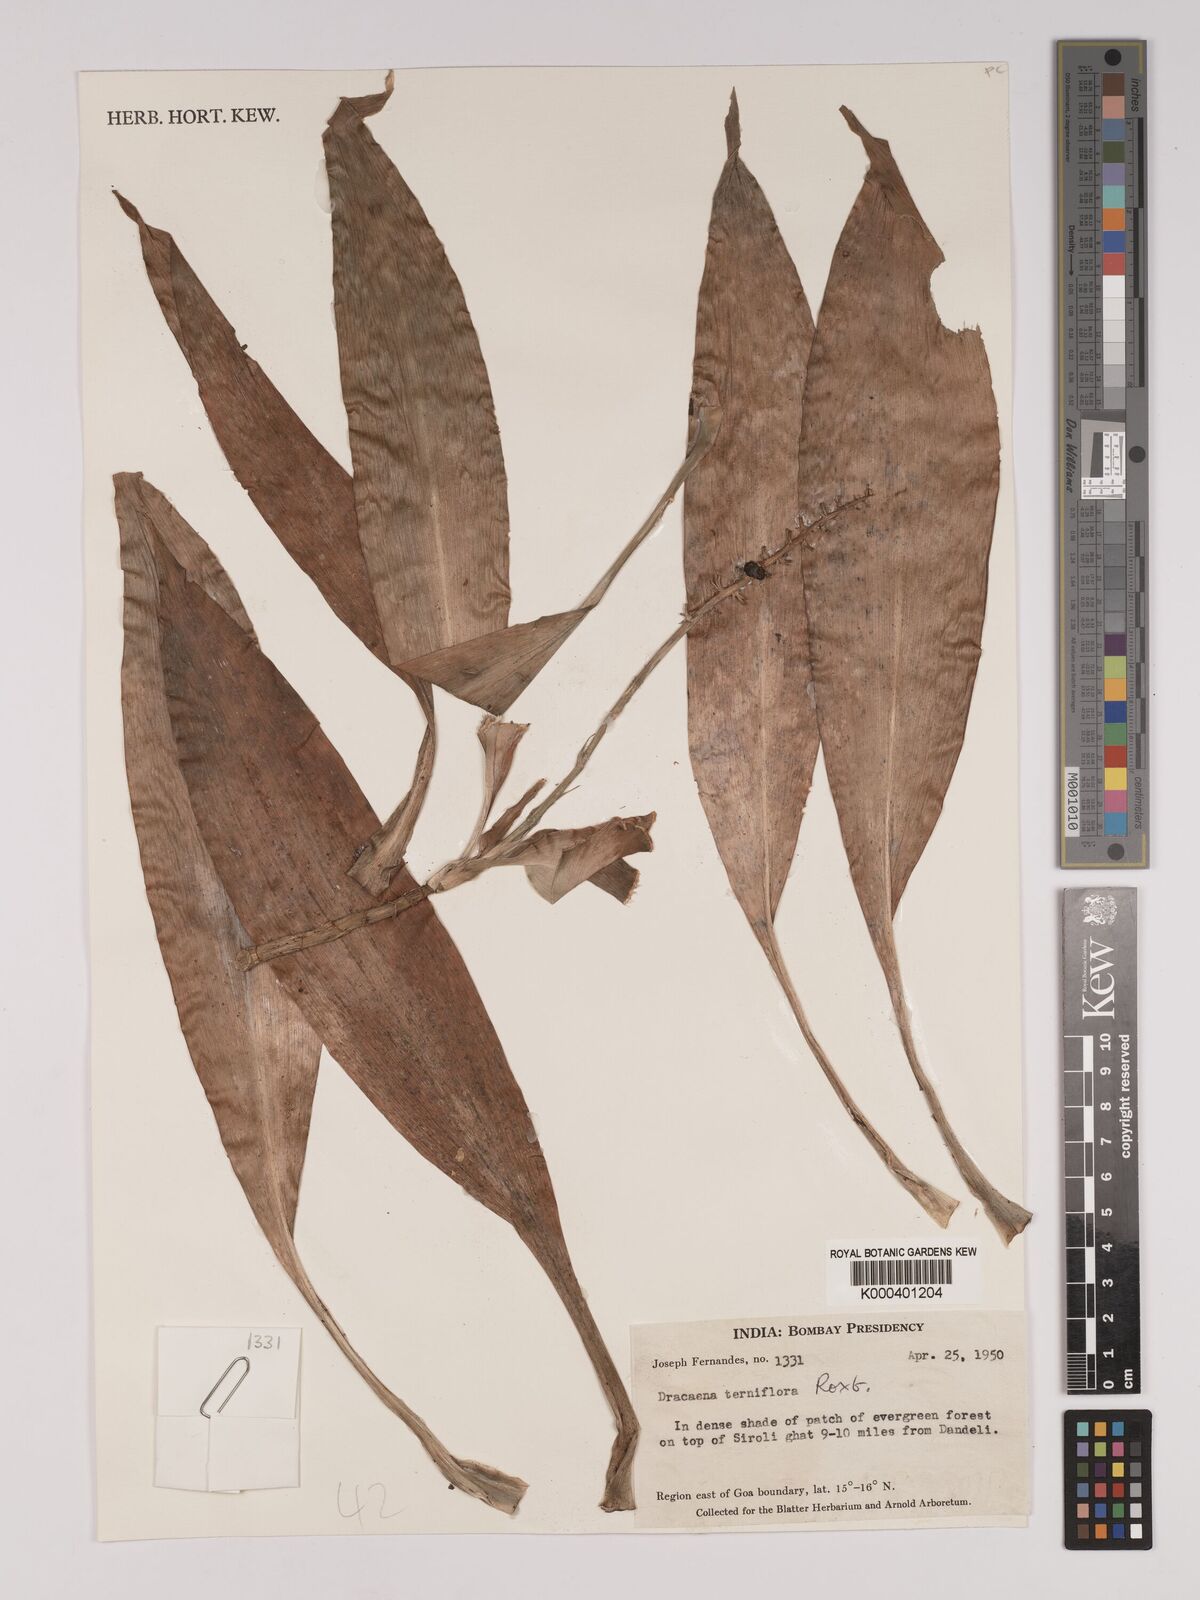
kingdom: Plantae
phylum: Tracheophyta
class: Liliopsida
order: Asparagales
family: Asparagaceae
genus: Dracaena
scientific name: Dracaena terniflora
